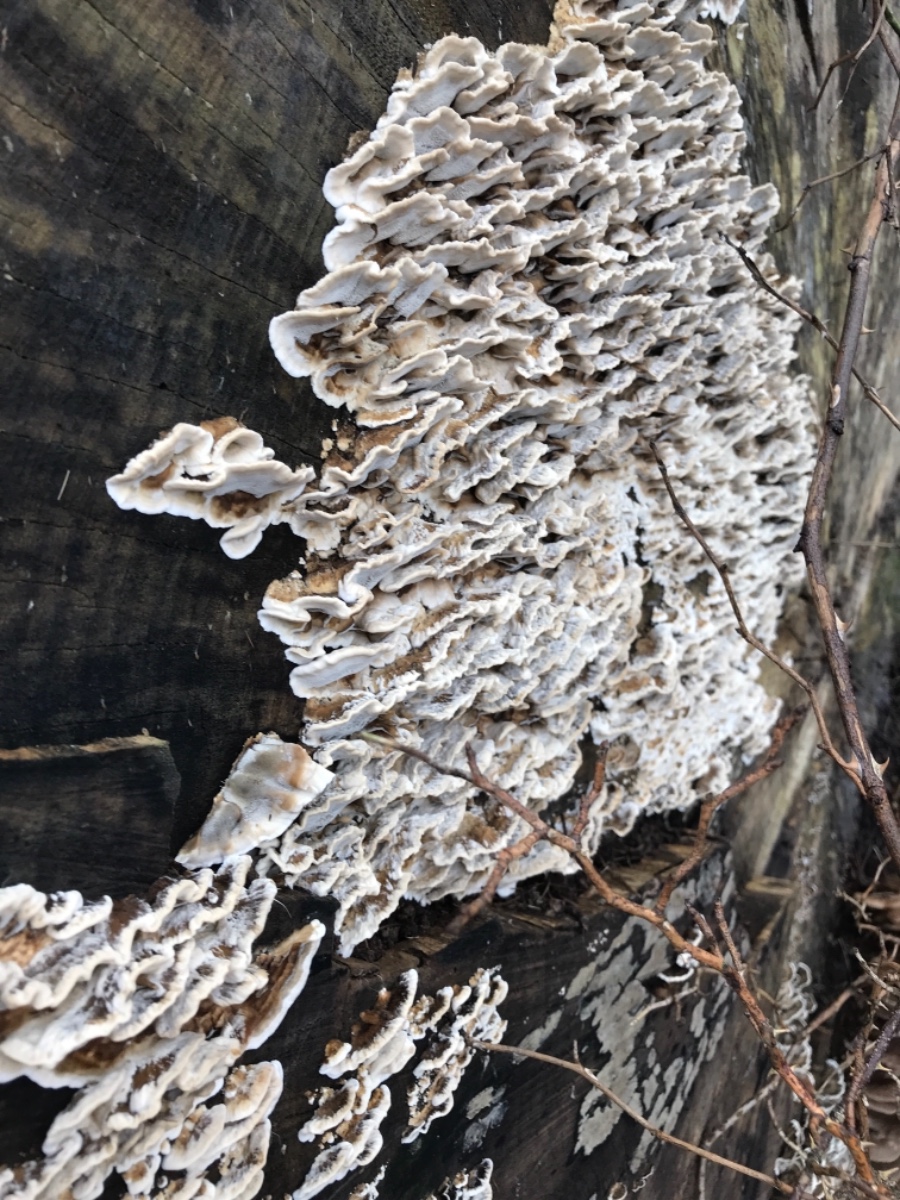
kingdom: Fungi
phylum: Basidiomycota
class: Agaricomycetes
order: Polyporales
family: Phanerochaetaceae
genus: Bjerkandera
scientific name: Bjerkandera adusta
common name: sveden sodporesvamp
